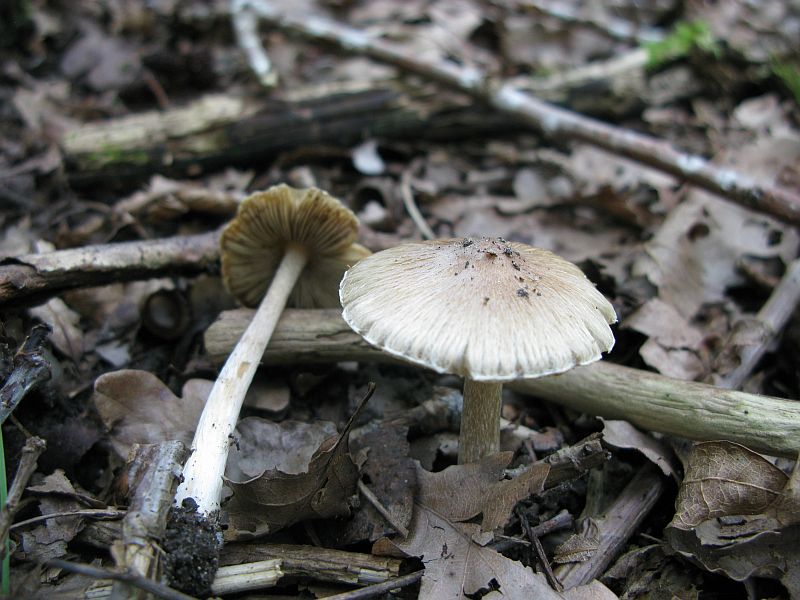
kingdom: Fungi
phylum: Basidiomycota
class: Agaricomycetes
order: Agaricales
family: Inocybaceae
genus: Pseudosperma
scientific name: Pseudosperma rimosum
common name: gulbladet trævlhat
